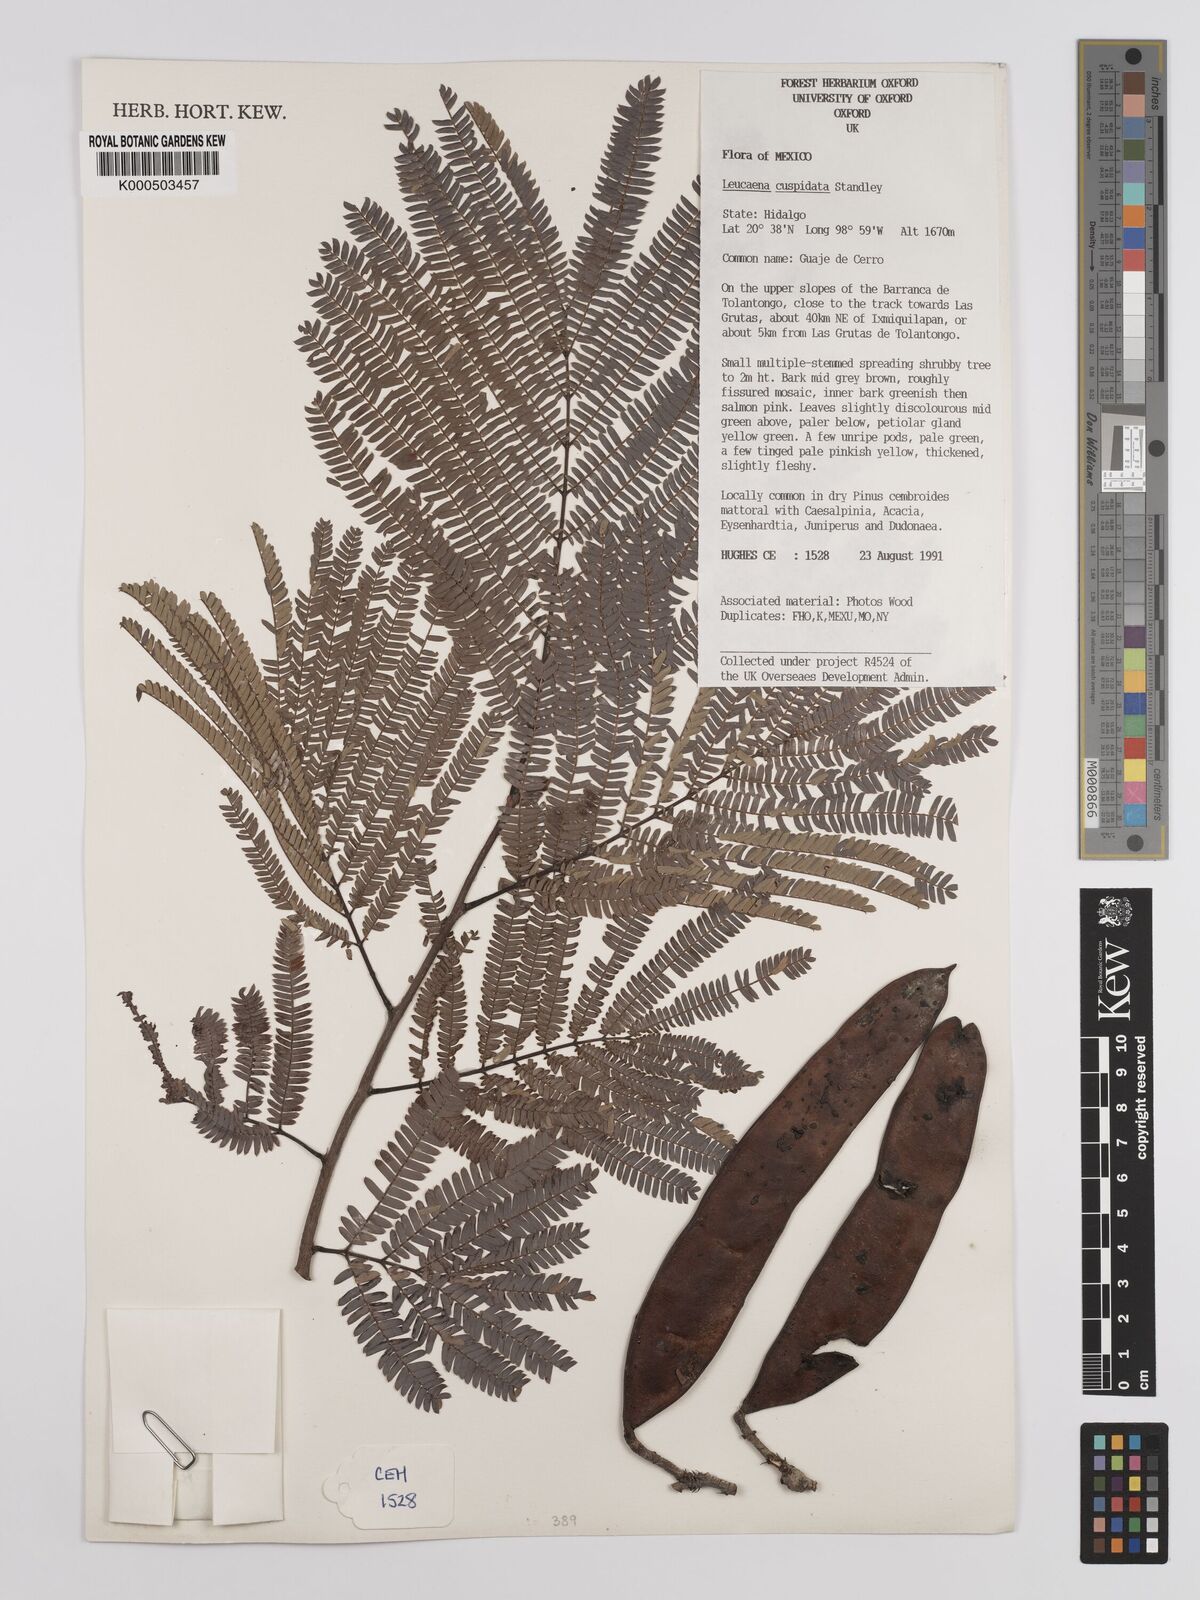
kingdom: Plantae
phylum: Tracheophyta
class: Magnoliopsida
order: Fabales
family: Fabaceae
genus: Leucaena
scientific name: Leucaena cuspidata
